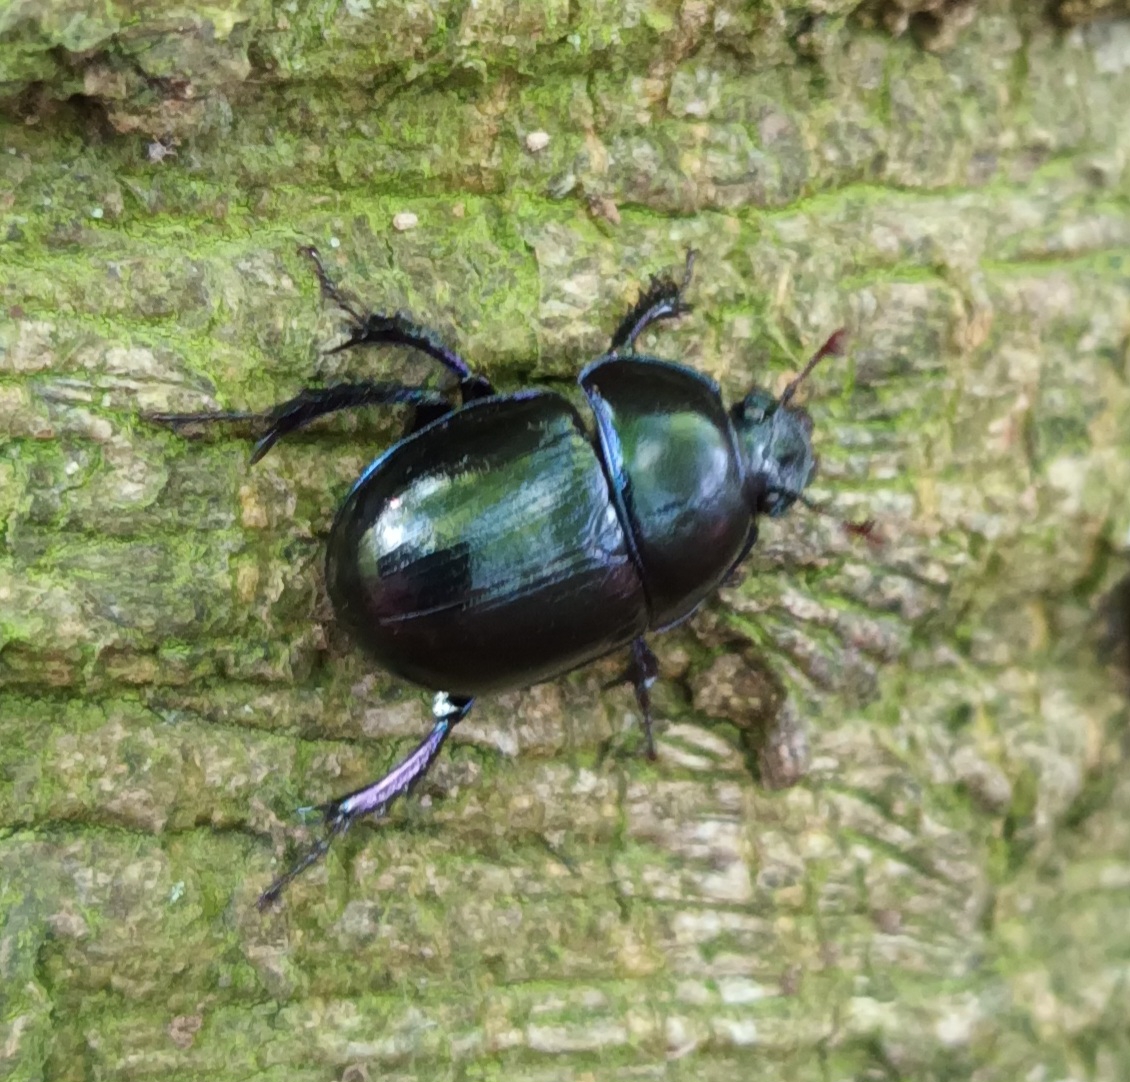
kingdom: Animalia
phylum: Arthropoda
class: Insecta
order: Coleoptera
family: Geotrupidae
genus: Anoplotrupes
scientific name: Anoplotrupes stercorosus
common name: Skovskarnbasse
